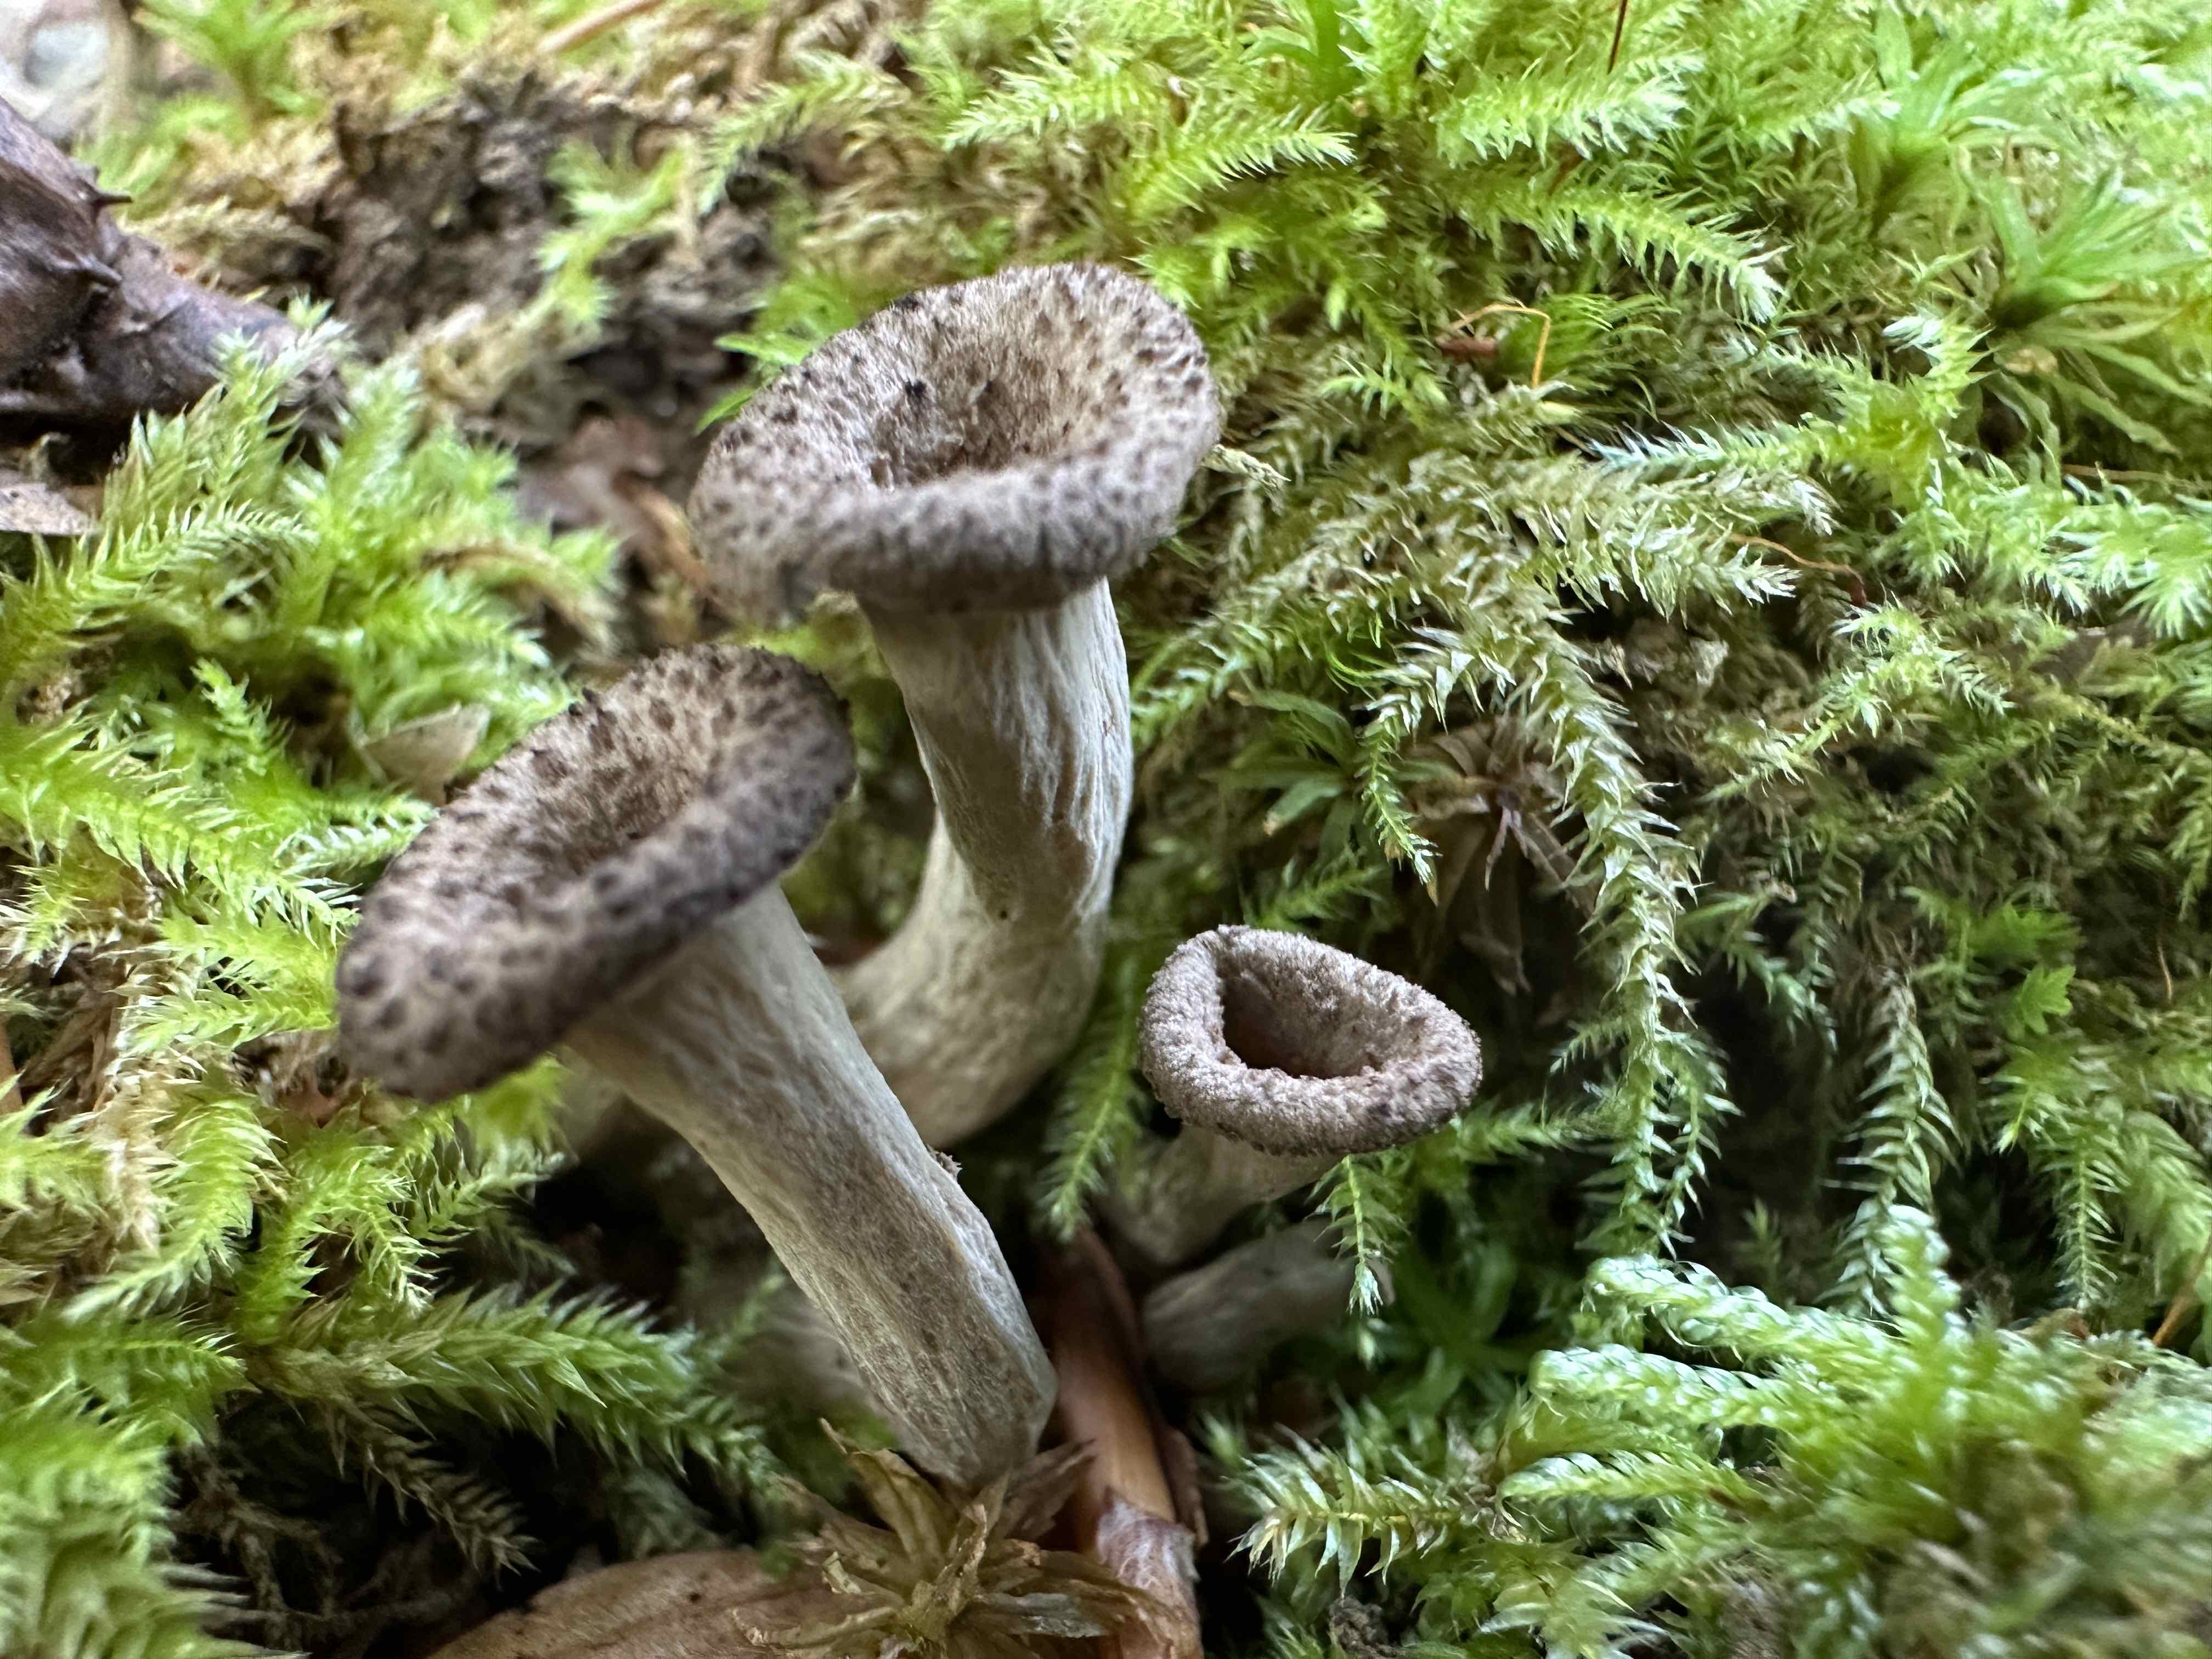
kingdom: Fungi
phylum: Basidiomycota
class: Agaricomycetes
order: Cantharellales
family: Hydnaceae
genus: Craterellus
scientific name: Craterellus cornucopioides
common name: trompetsvamp
